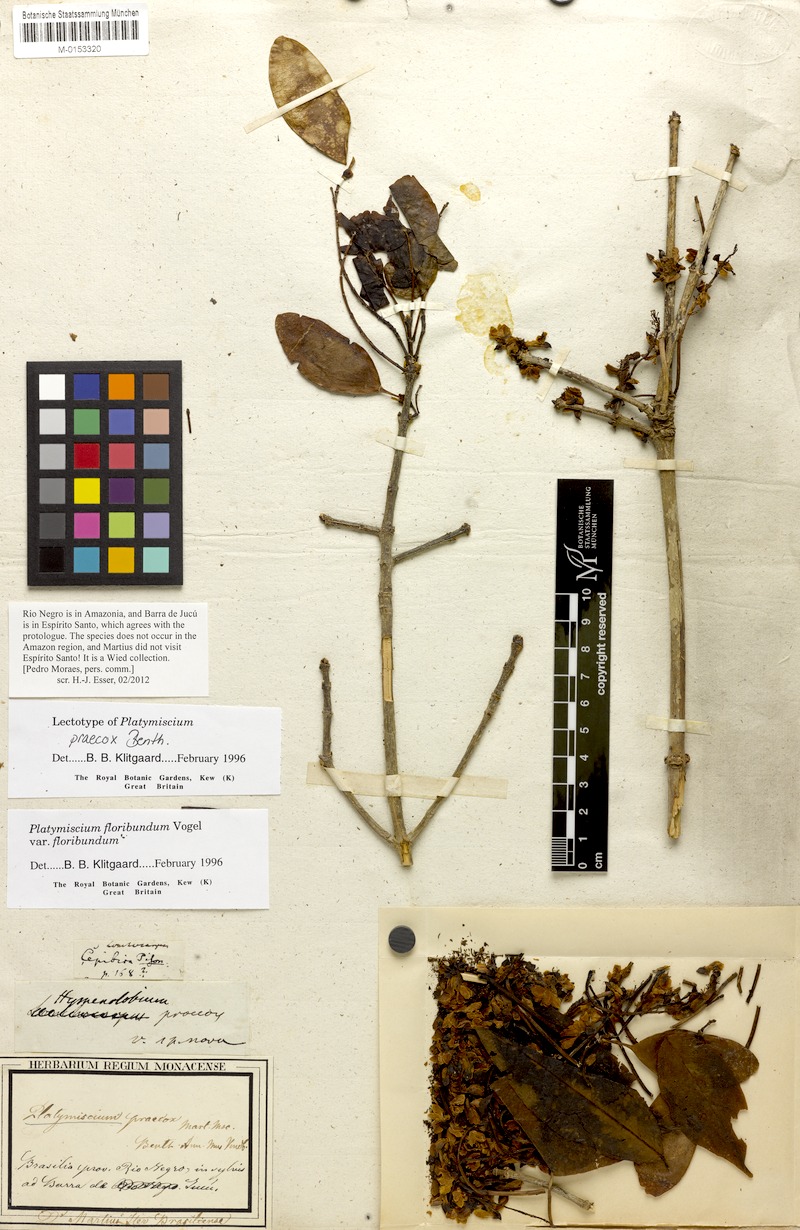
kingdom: Plantae
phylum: Tracheophyta
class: Magnoliopsida
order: Fabales
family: Fabaceae
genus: Platymiscium
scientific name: Platymiscium floribundum
